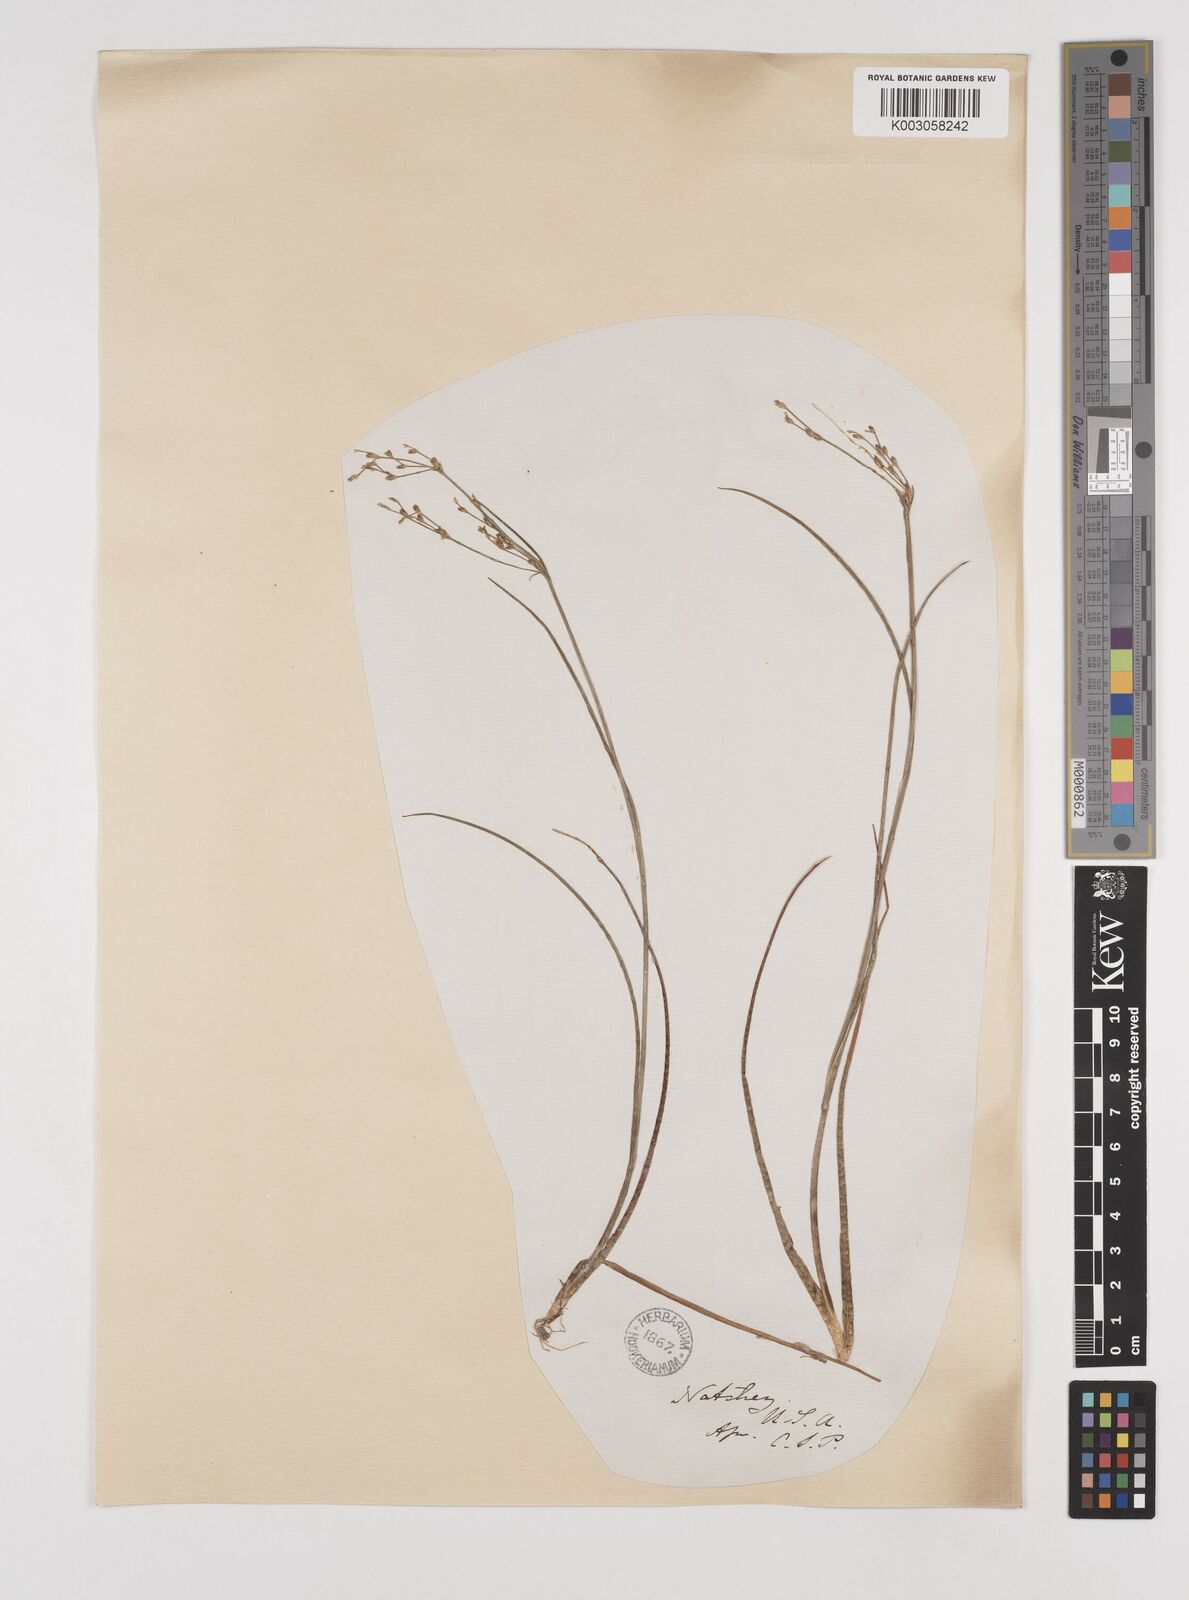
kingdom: Plantae
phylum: Tracheophyta
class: Liliopsida
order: Poales
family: Juncaceae
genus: Juncus
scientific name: Juncus
